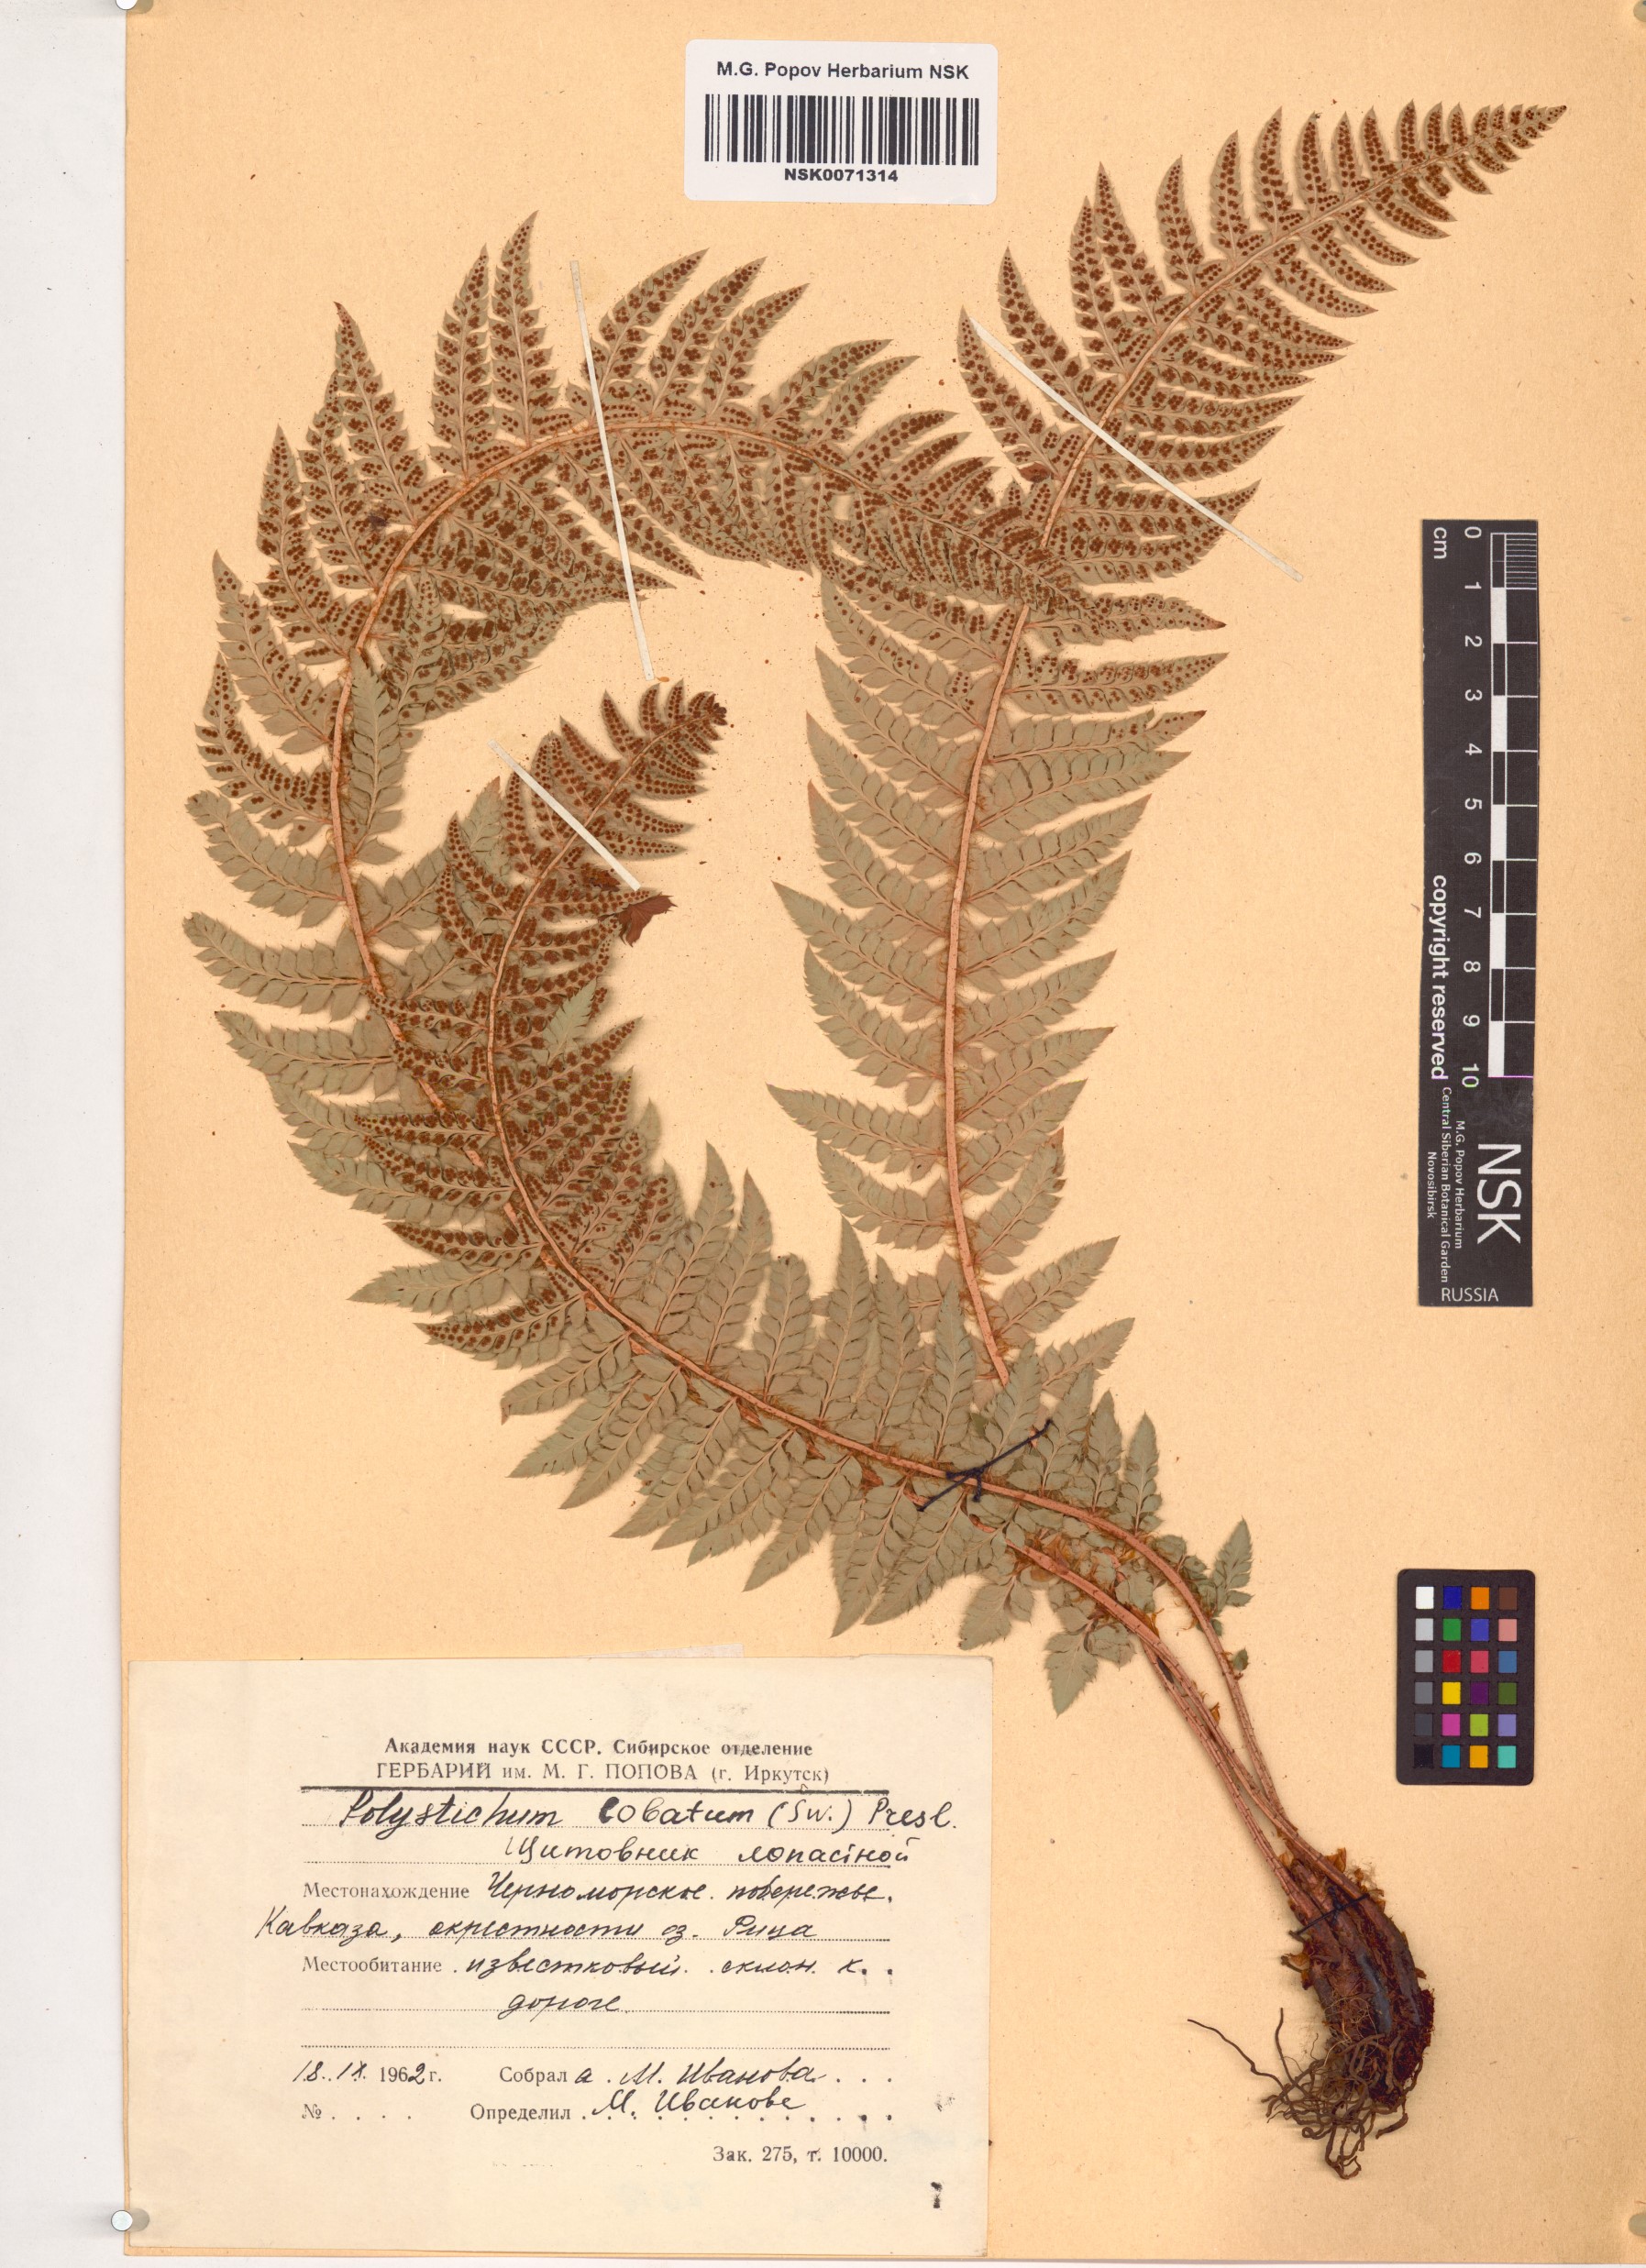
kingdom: Plantae
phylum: Tracheophyta
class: Polypodiopsida
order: Polypodiales
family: Dryopteridaceae
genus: Polystichum
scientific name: Polystichum aculeatum
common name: Hard shield-fern
